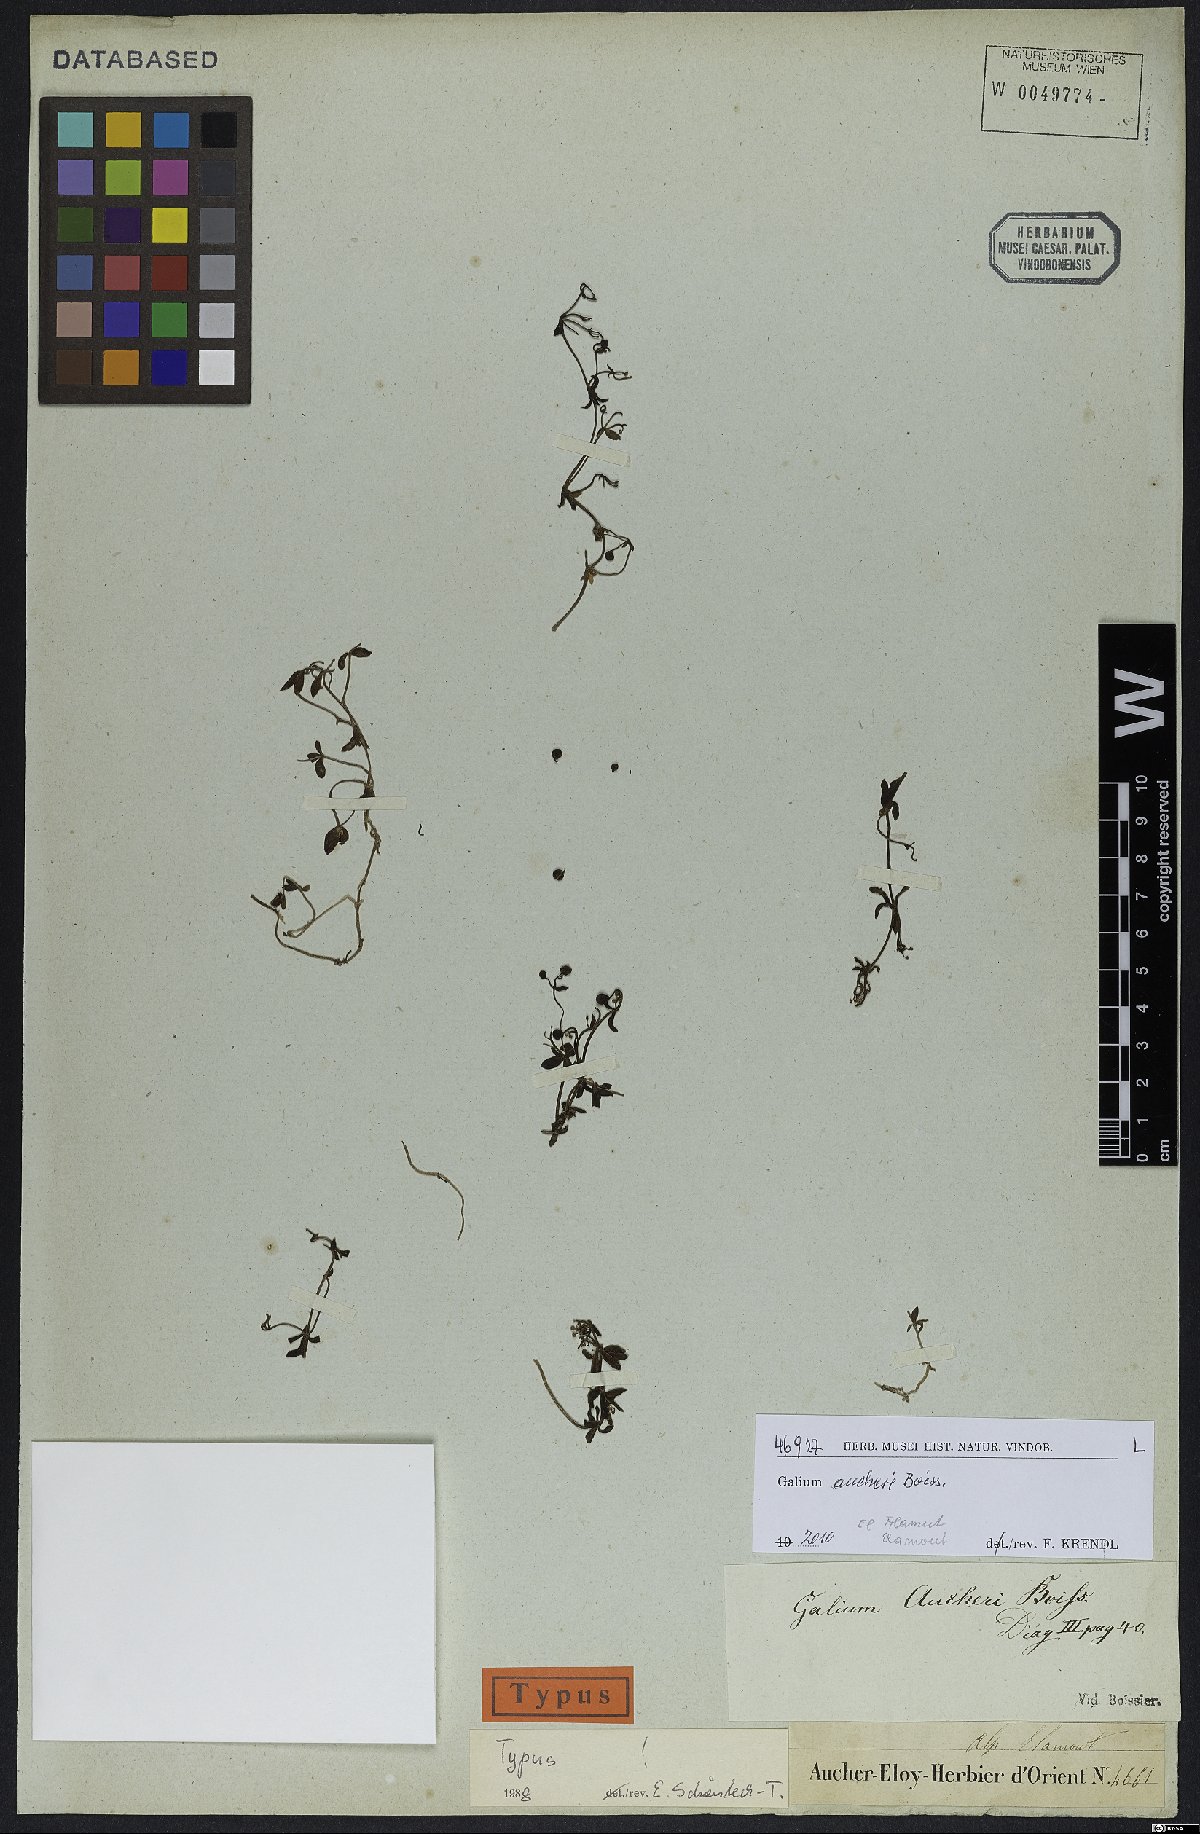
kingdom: Plantae
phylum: Tracheophyta
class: Magnoliopsida
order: Gentianales
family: Rubiaceae
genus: Galium
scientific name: Galium aucheri
